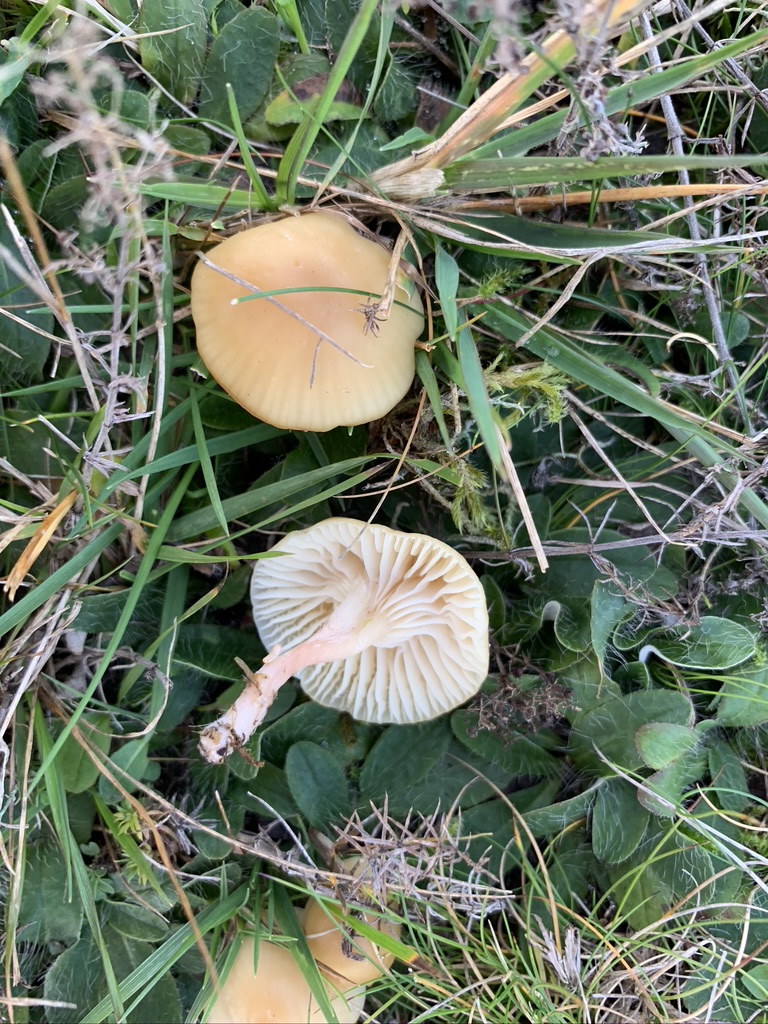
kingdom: Fungi
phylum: Basidiomycota
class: Agaricomycetes
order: Agaricales
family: Hygrophoraceae
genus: Cuphophyllus
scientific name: Cuphophyllus russocoriaceus
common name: ruslæder-vokshat
